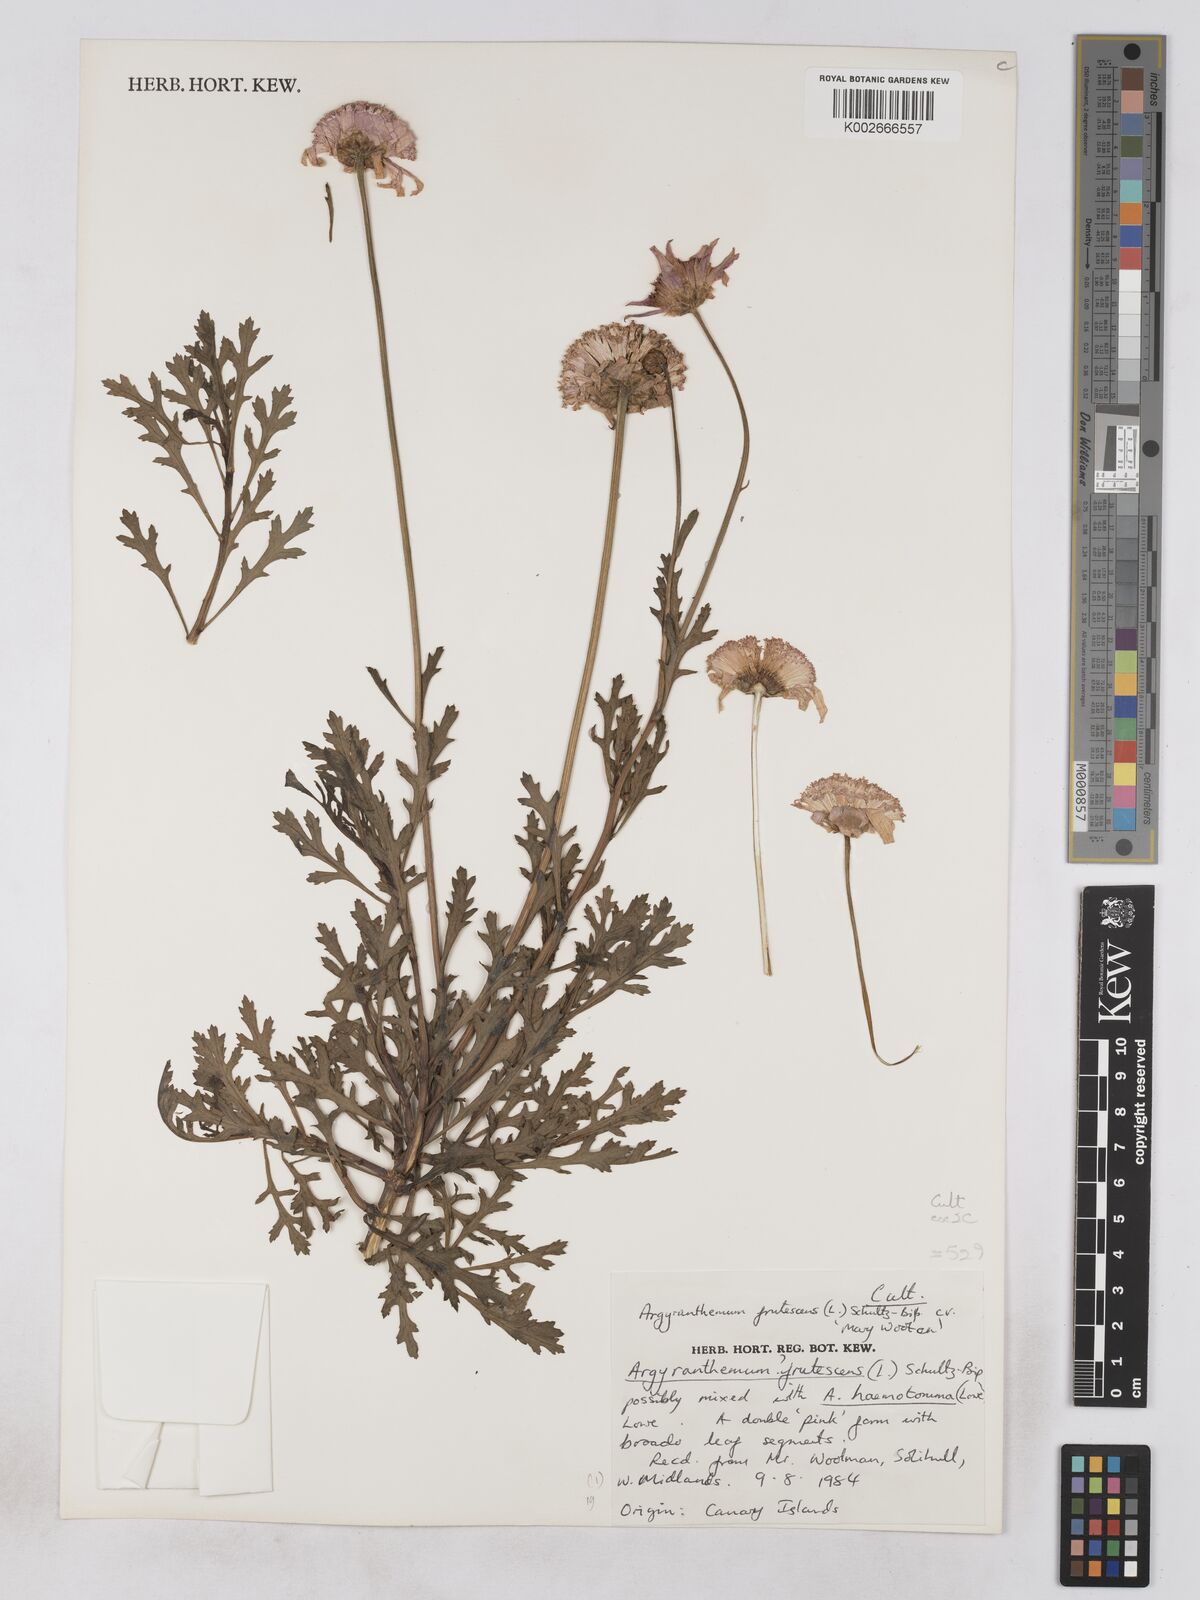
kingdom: Plantae
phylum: Tracheophyta
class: Magnoliopsida
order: Asterales
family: Asteraceae
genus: Argyranthemum
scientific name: Argyranthemum frutescens
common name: Paris daisy
